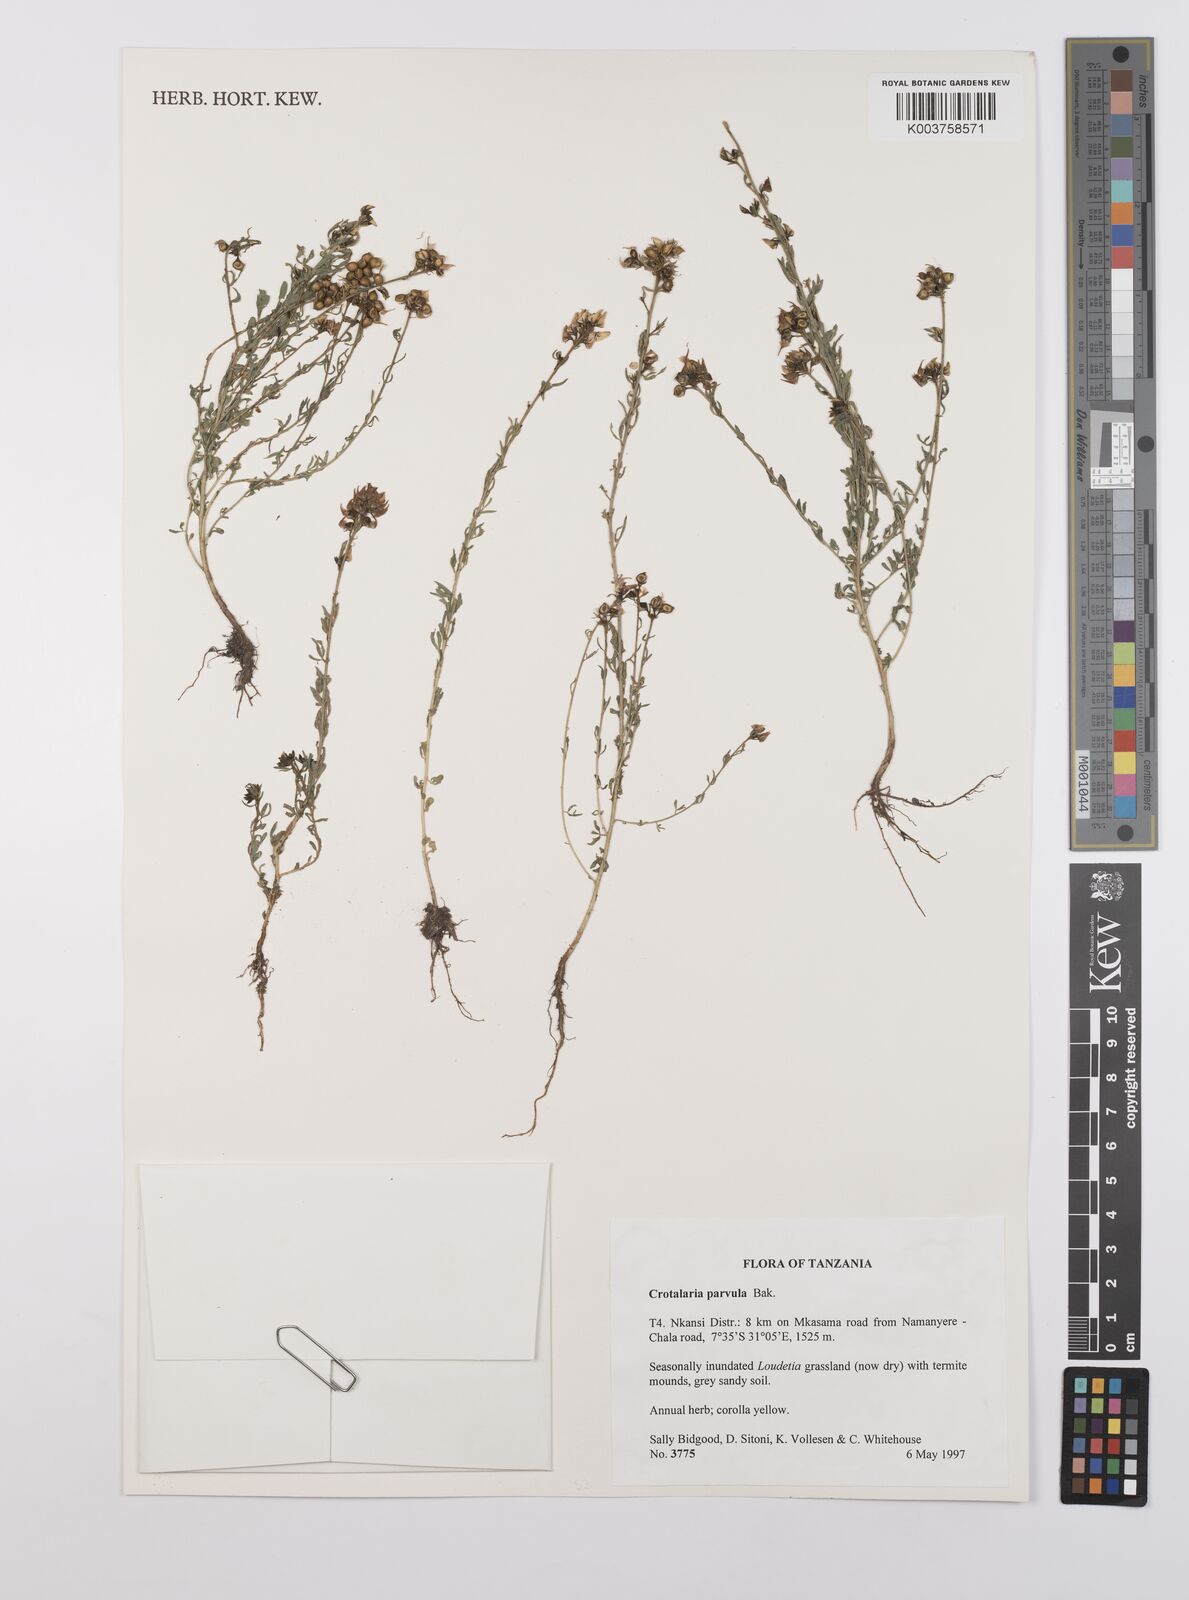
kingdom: Plantae
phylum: Tracheophyta
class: Magnoliopsida
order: Fabales
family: Fabaceae
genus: Crotalaria
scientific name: Crotalaria parvula
